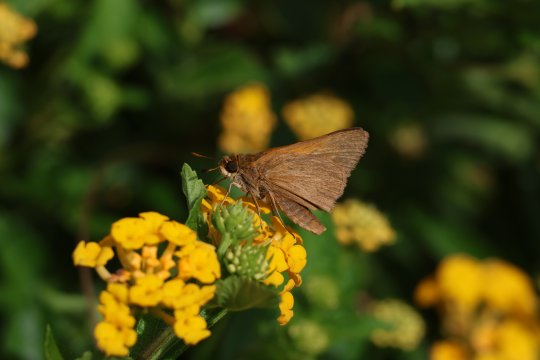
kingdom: Animalia
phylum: Arthropoda
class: Insecta
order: Lepidoptera
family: Hesperiidae
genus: Euphyes
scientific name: Euphyes pilatka
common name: Palatka Skipper
